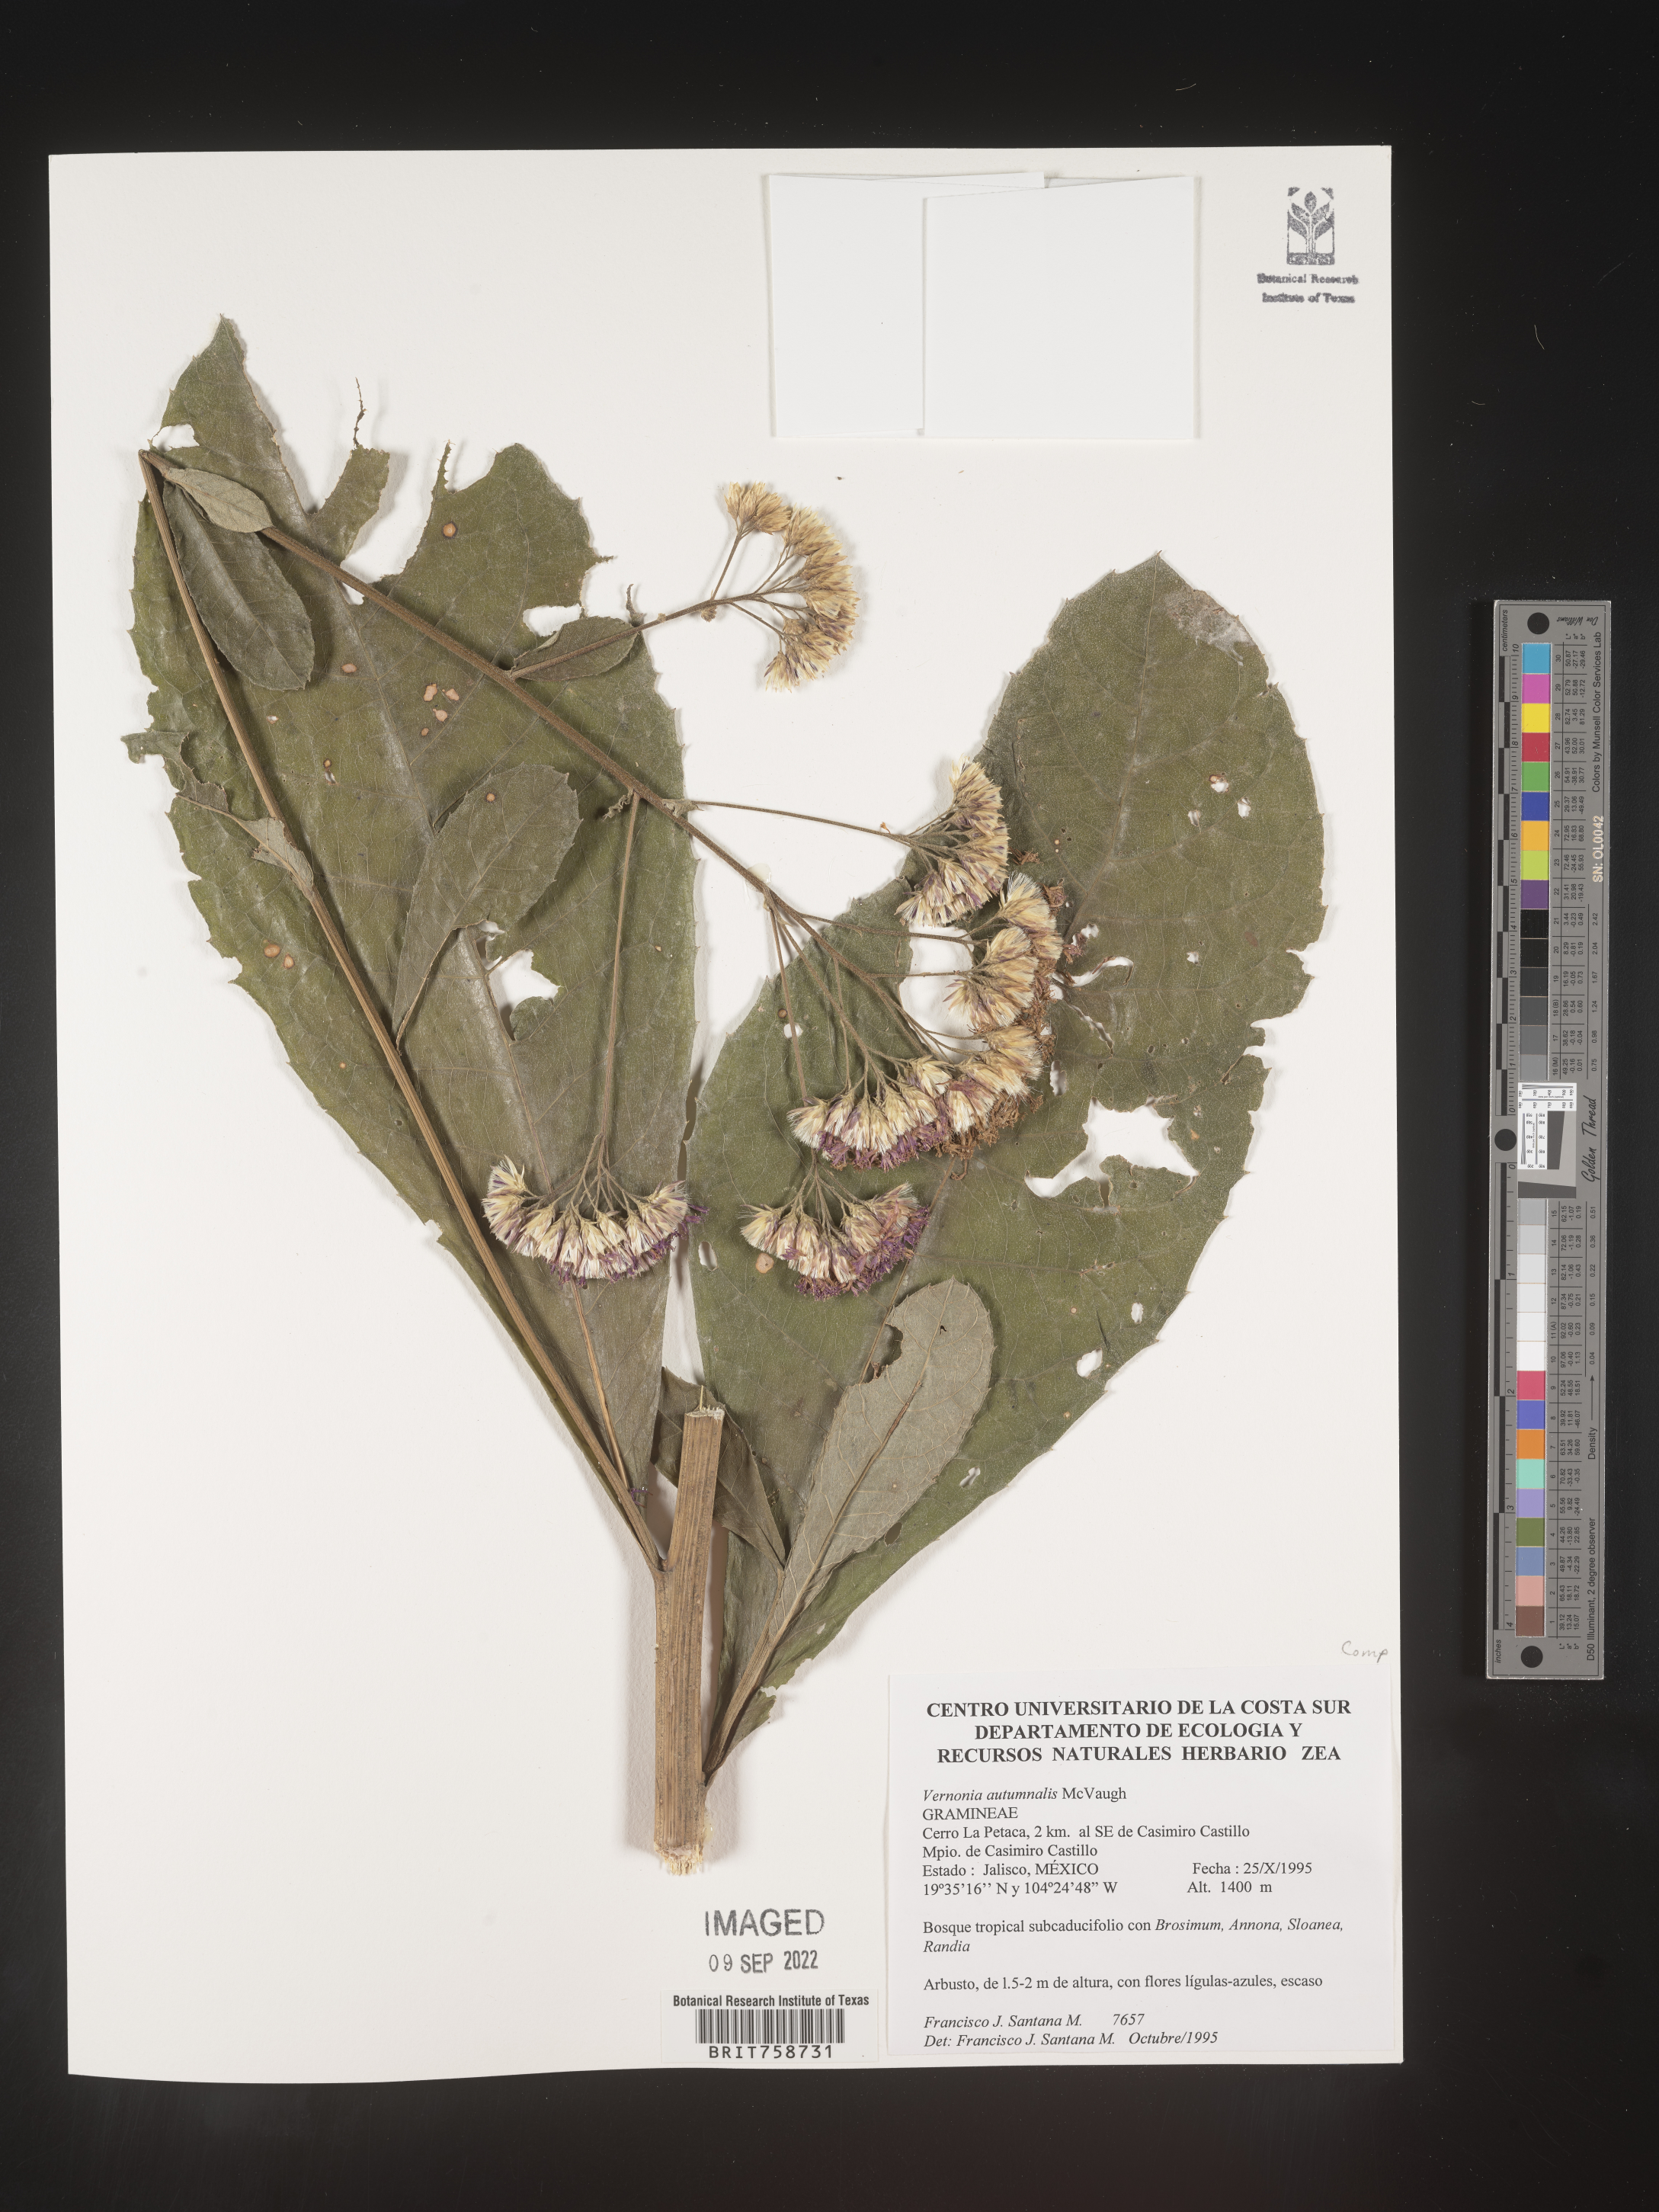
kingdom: Plantae
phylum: Tracheophyta
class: Magnoliopsida
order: Asterales
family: Asteraceae
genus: Vernonia
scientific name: Vernonia
